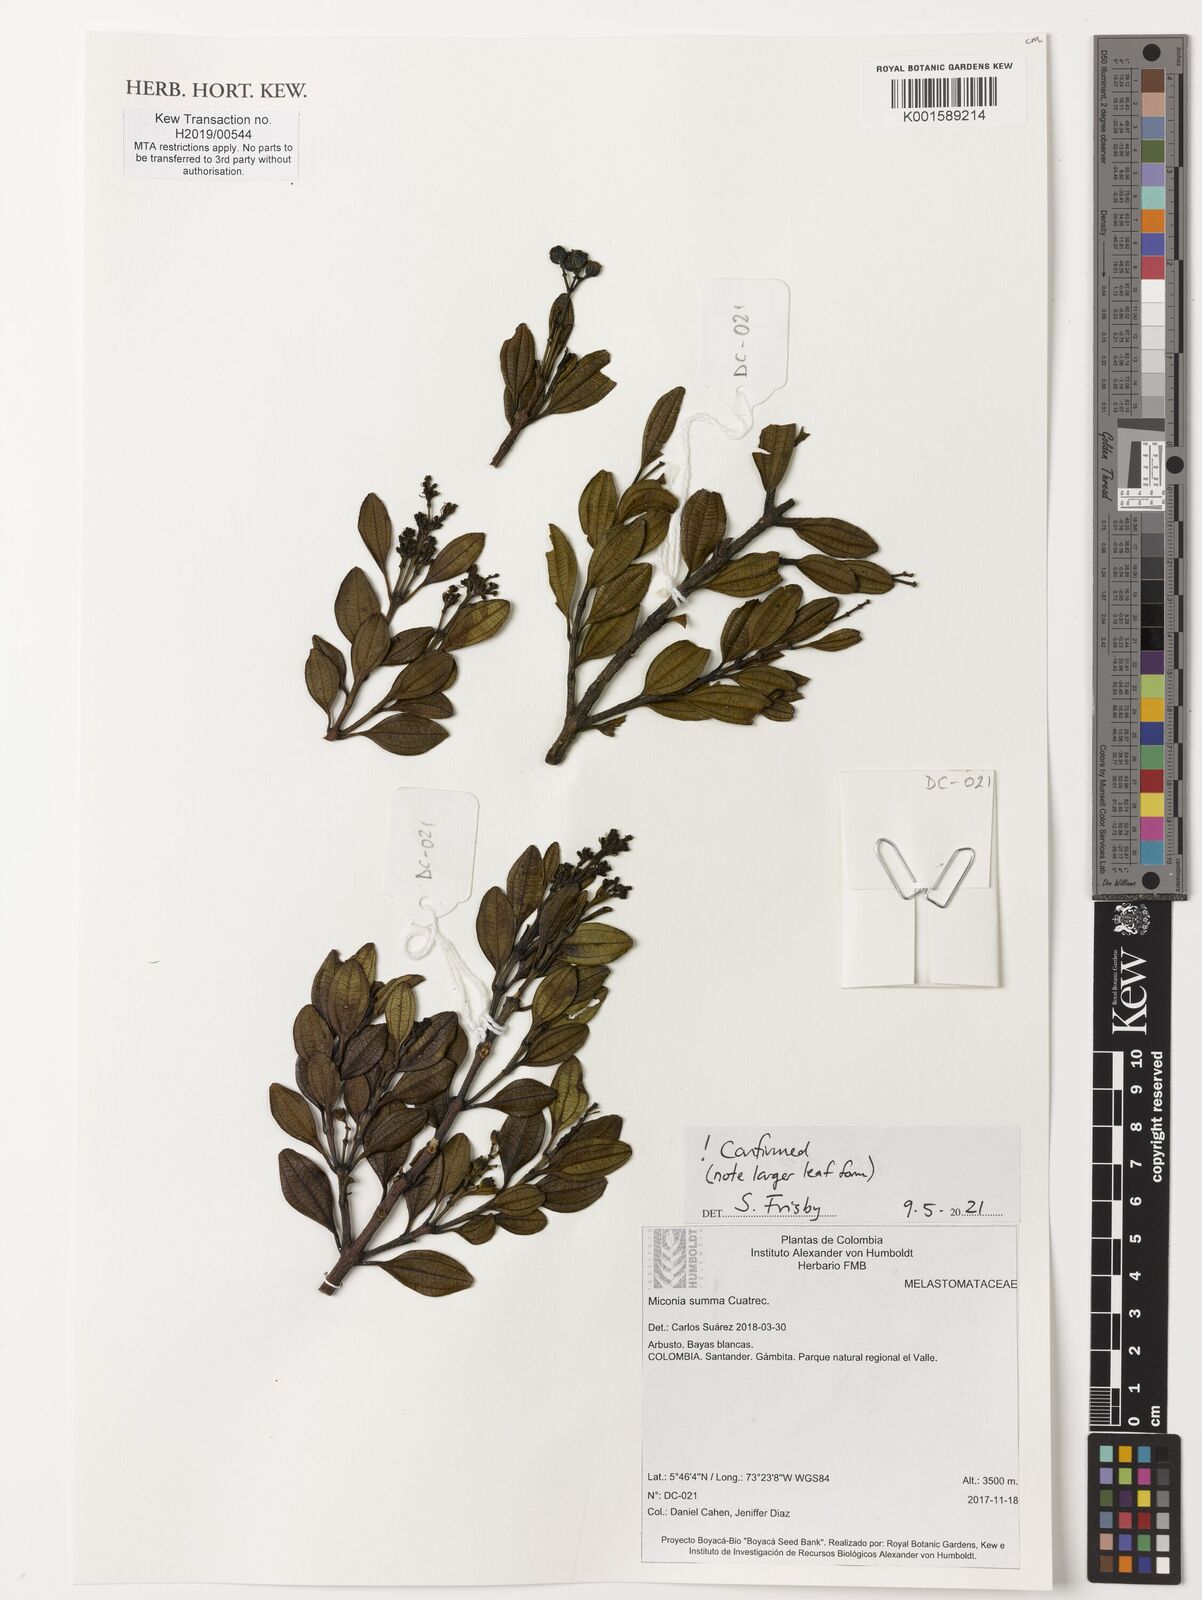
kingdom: Plantae
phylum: Tracheophyta
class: Magnoliopsida
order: Myrtales
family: Melastomataceae
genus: Miconia
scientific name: Miconia summa
